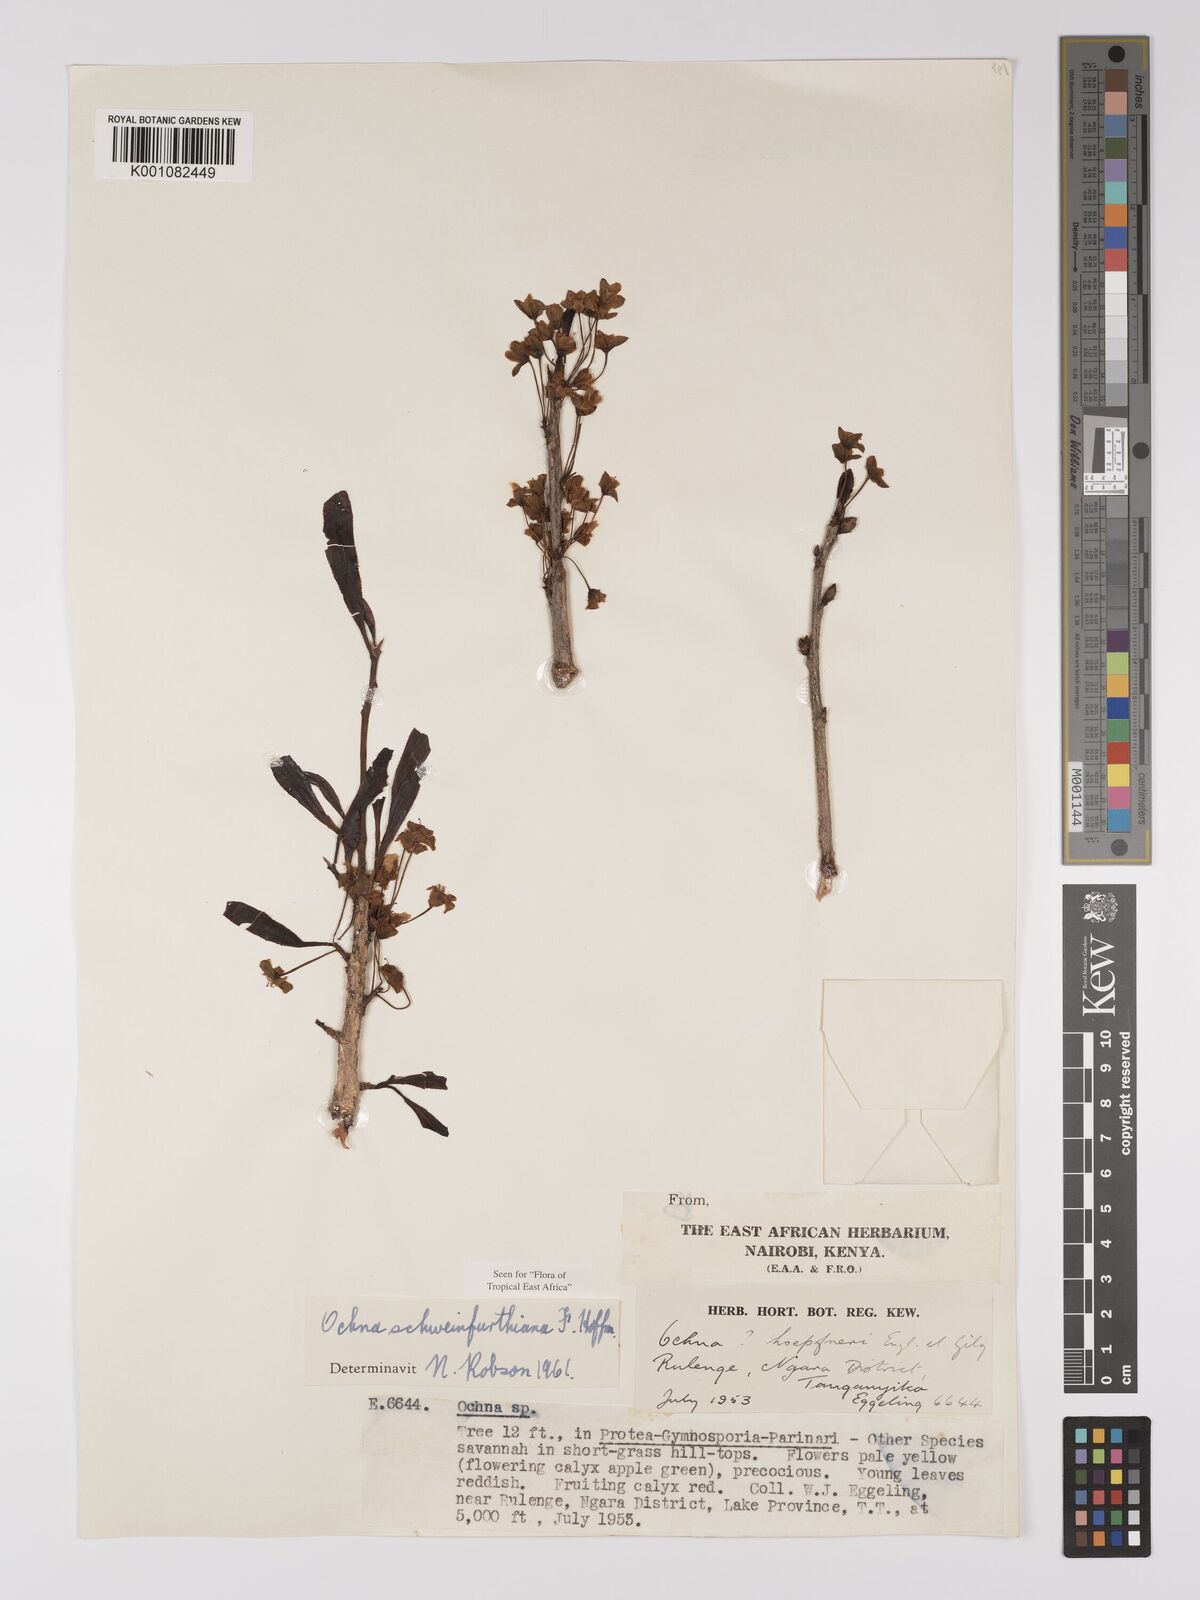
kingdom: Plantae
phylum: Tracheophyta
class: Magnoliopsida
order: Malpighiales
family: Ochnaceae
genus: Ochna
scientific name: Ochna schweinfurthiana
